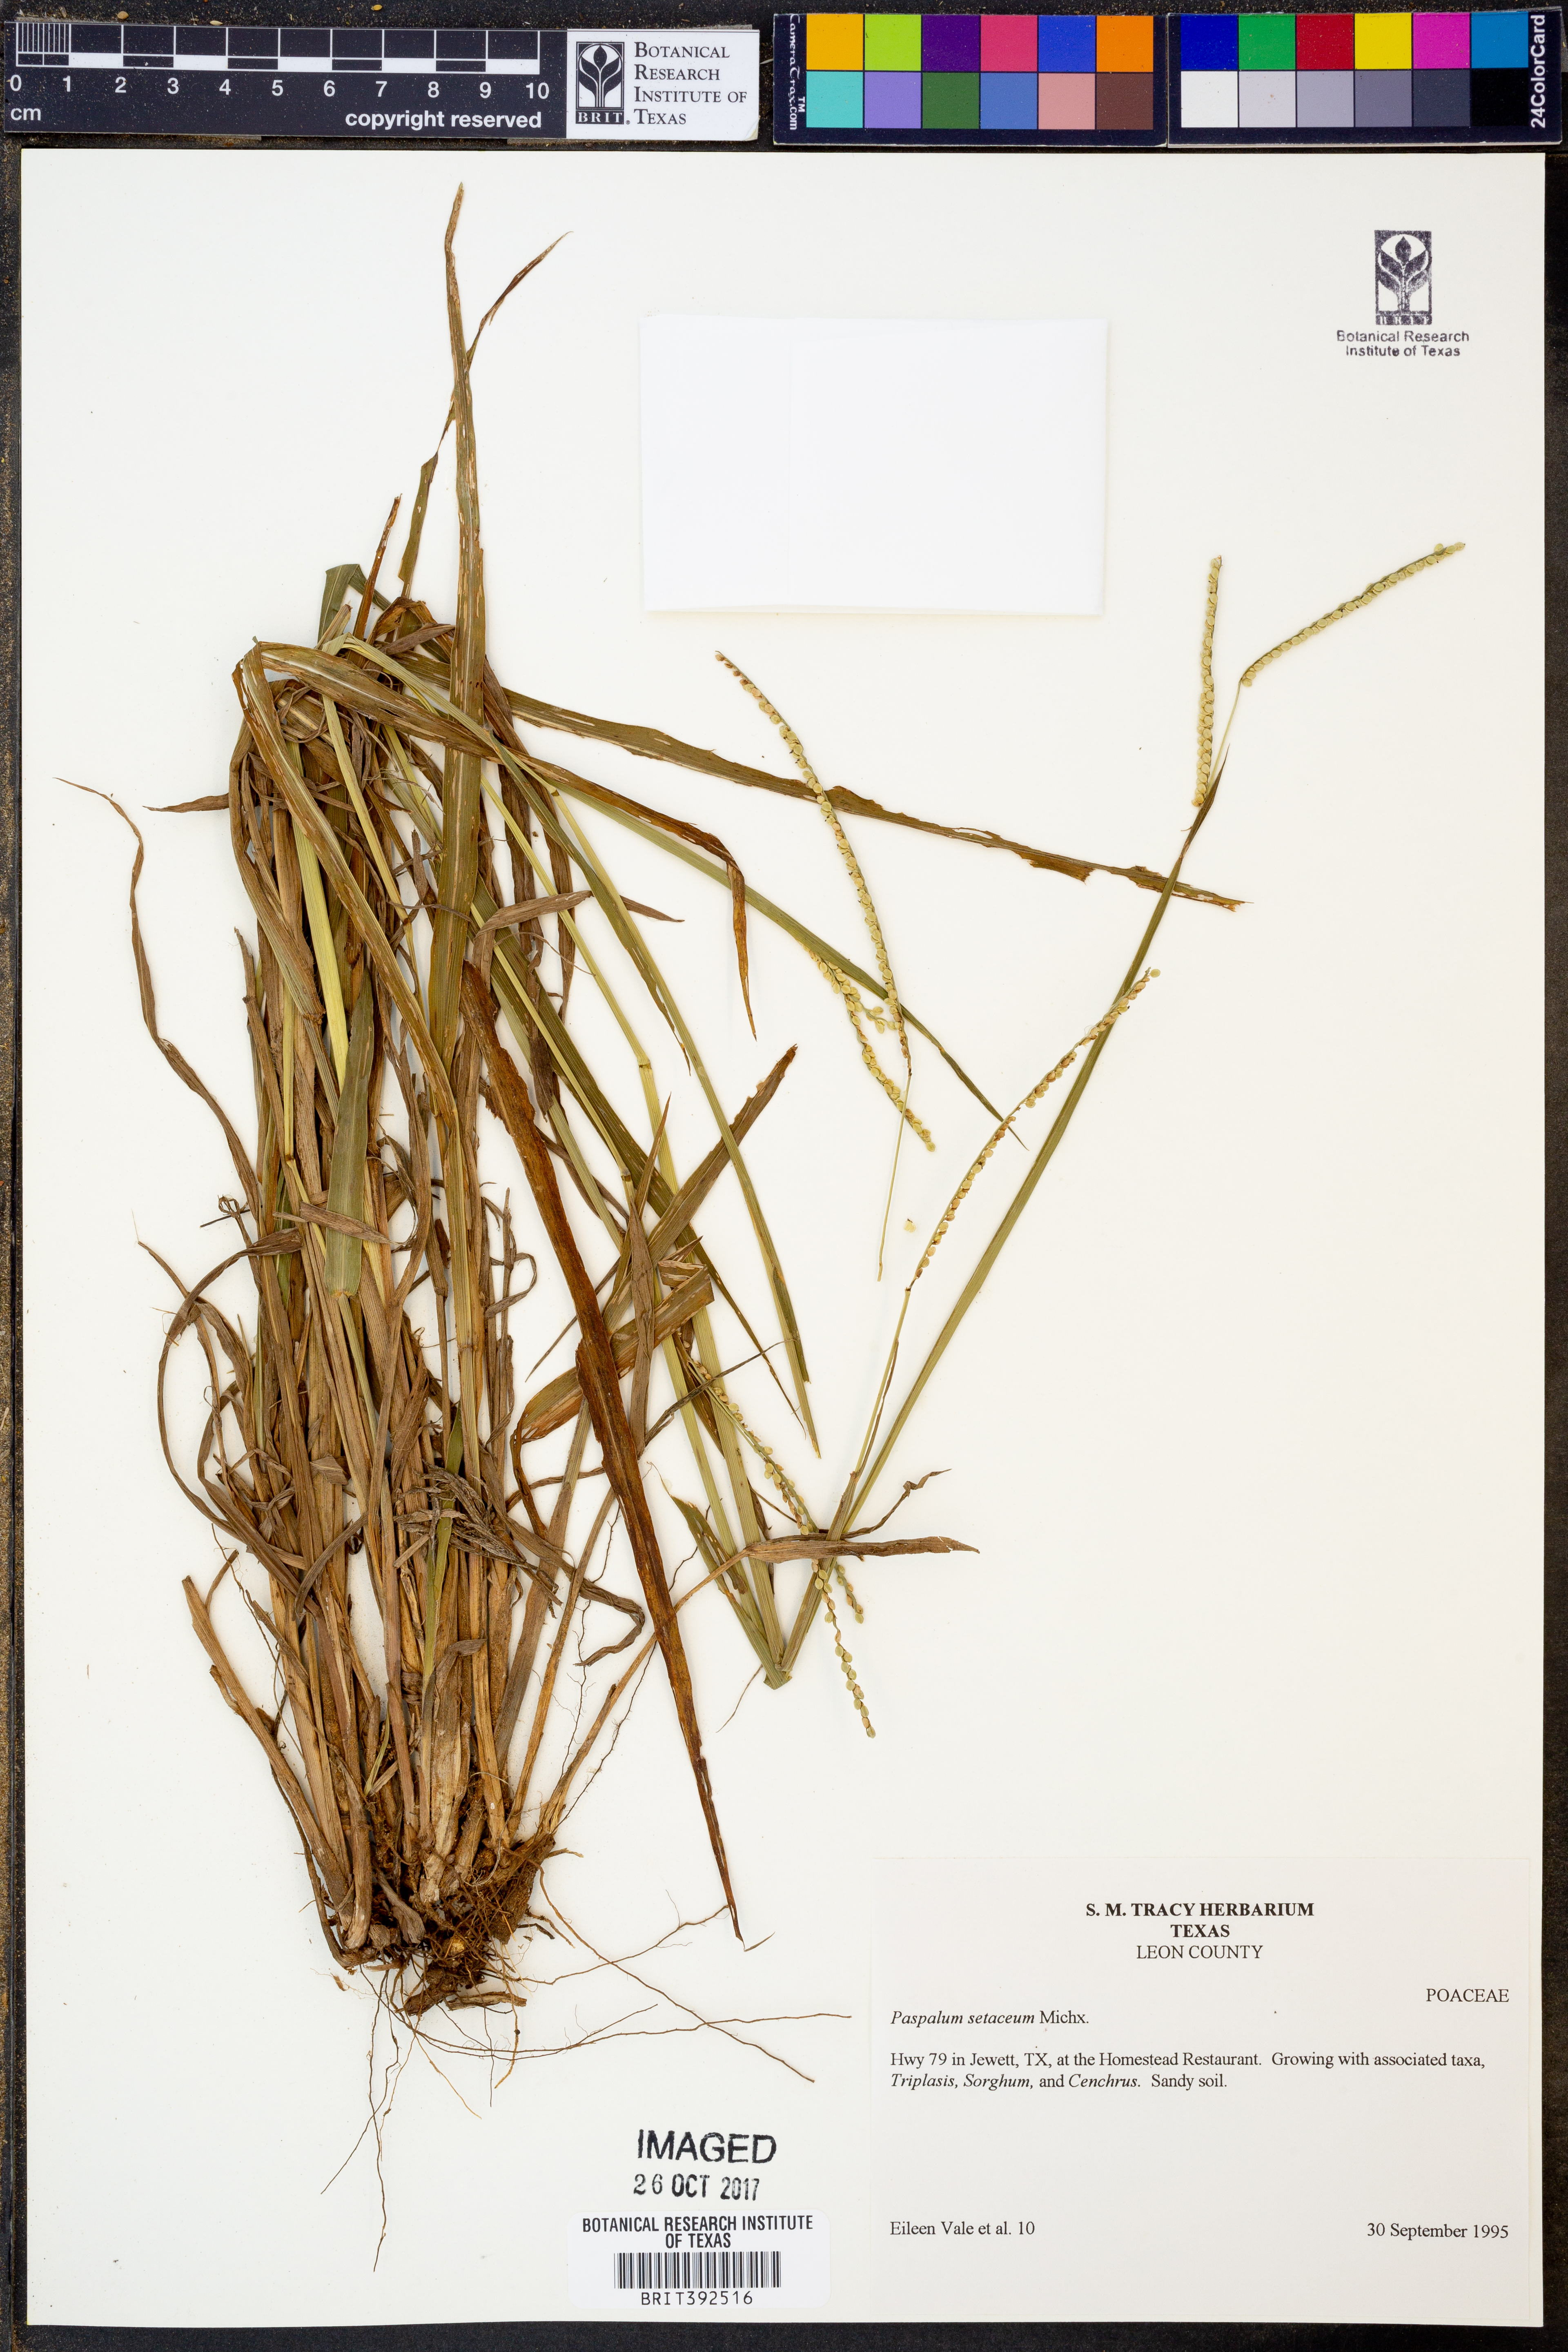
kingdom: Plantae
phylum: Tracheophyta
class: Liliopsida
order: Poales
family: Poaceae
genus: Paspalum
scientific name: Paspalum setaceum
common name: Slender paspalum
